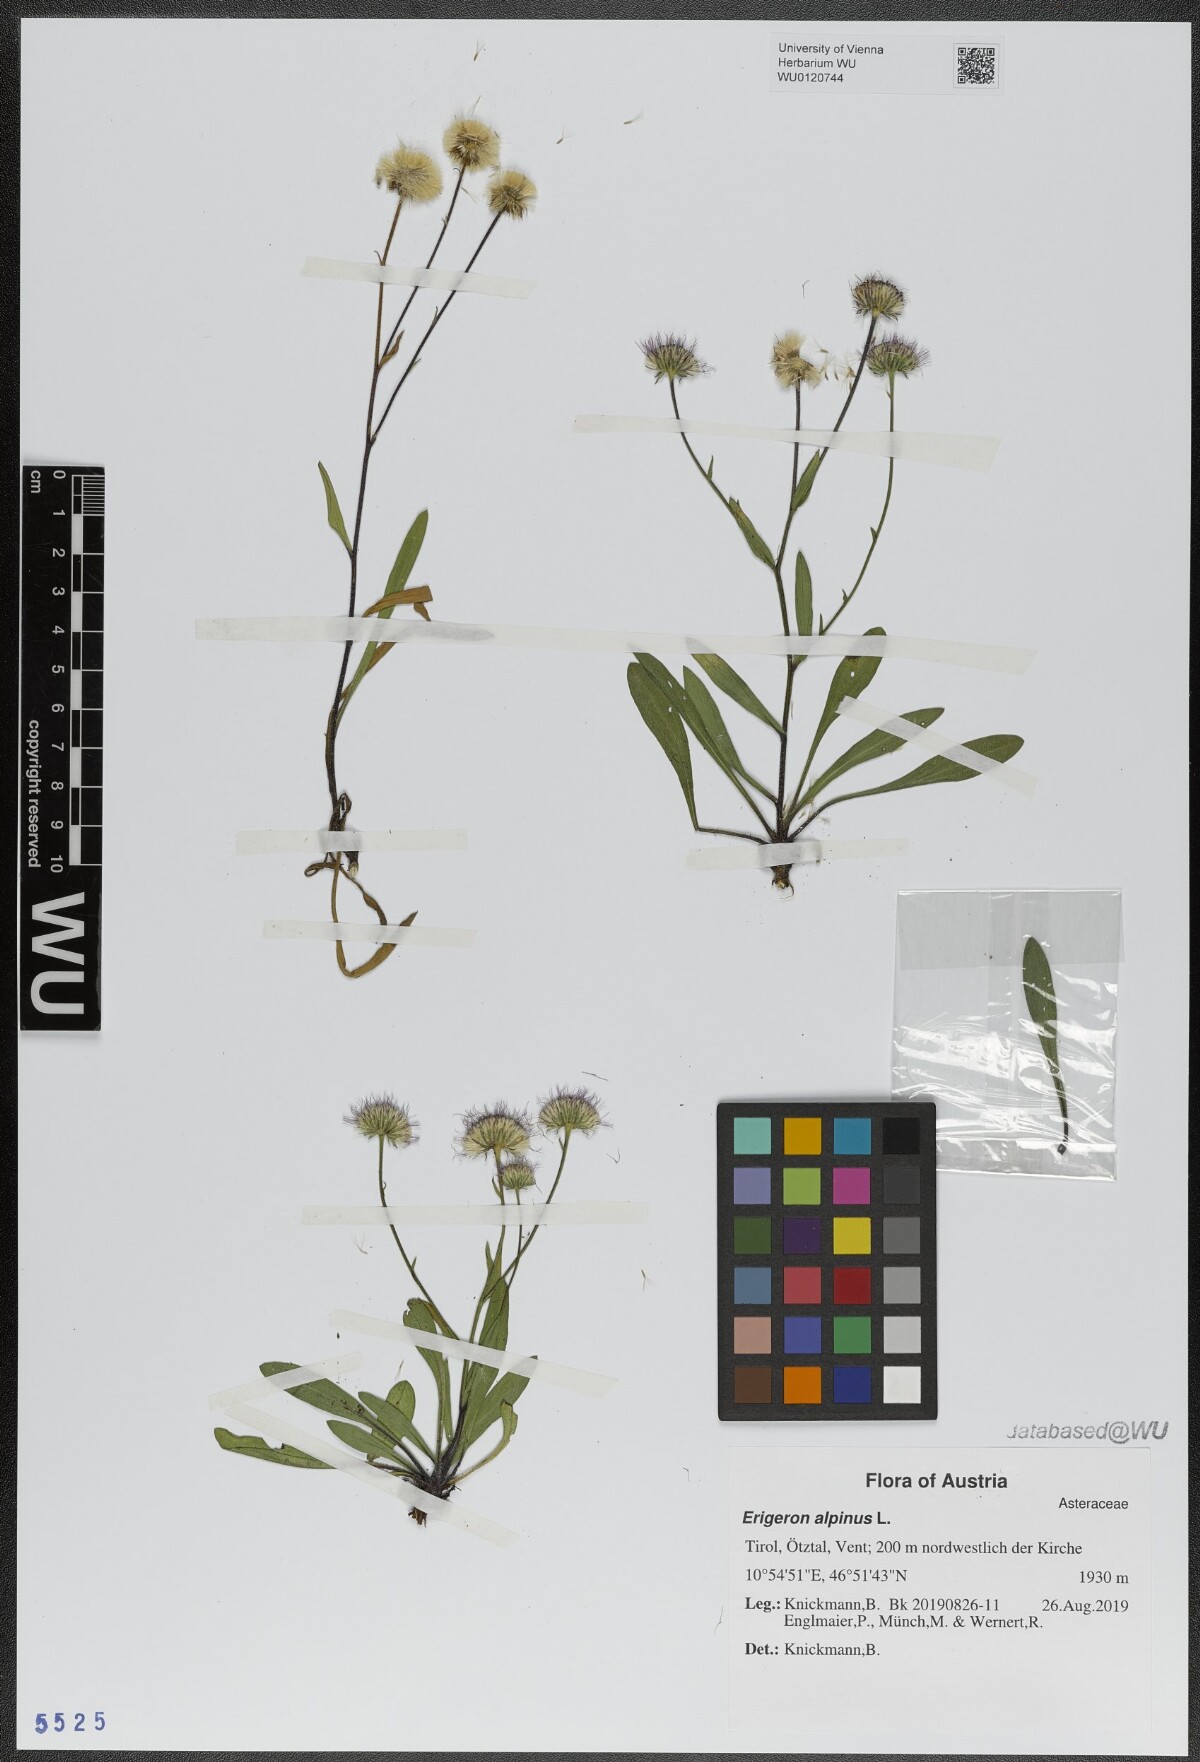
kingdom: Plantae
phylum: Tracheophyta
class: Magnoliopsida
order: Asterales
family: Asteraceae
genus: Erigeron
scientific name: Erigeron alpinus
